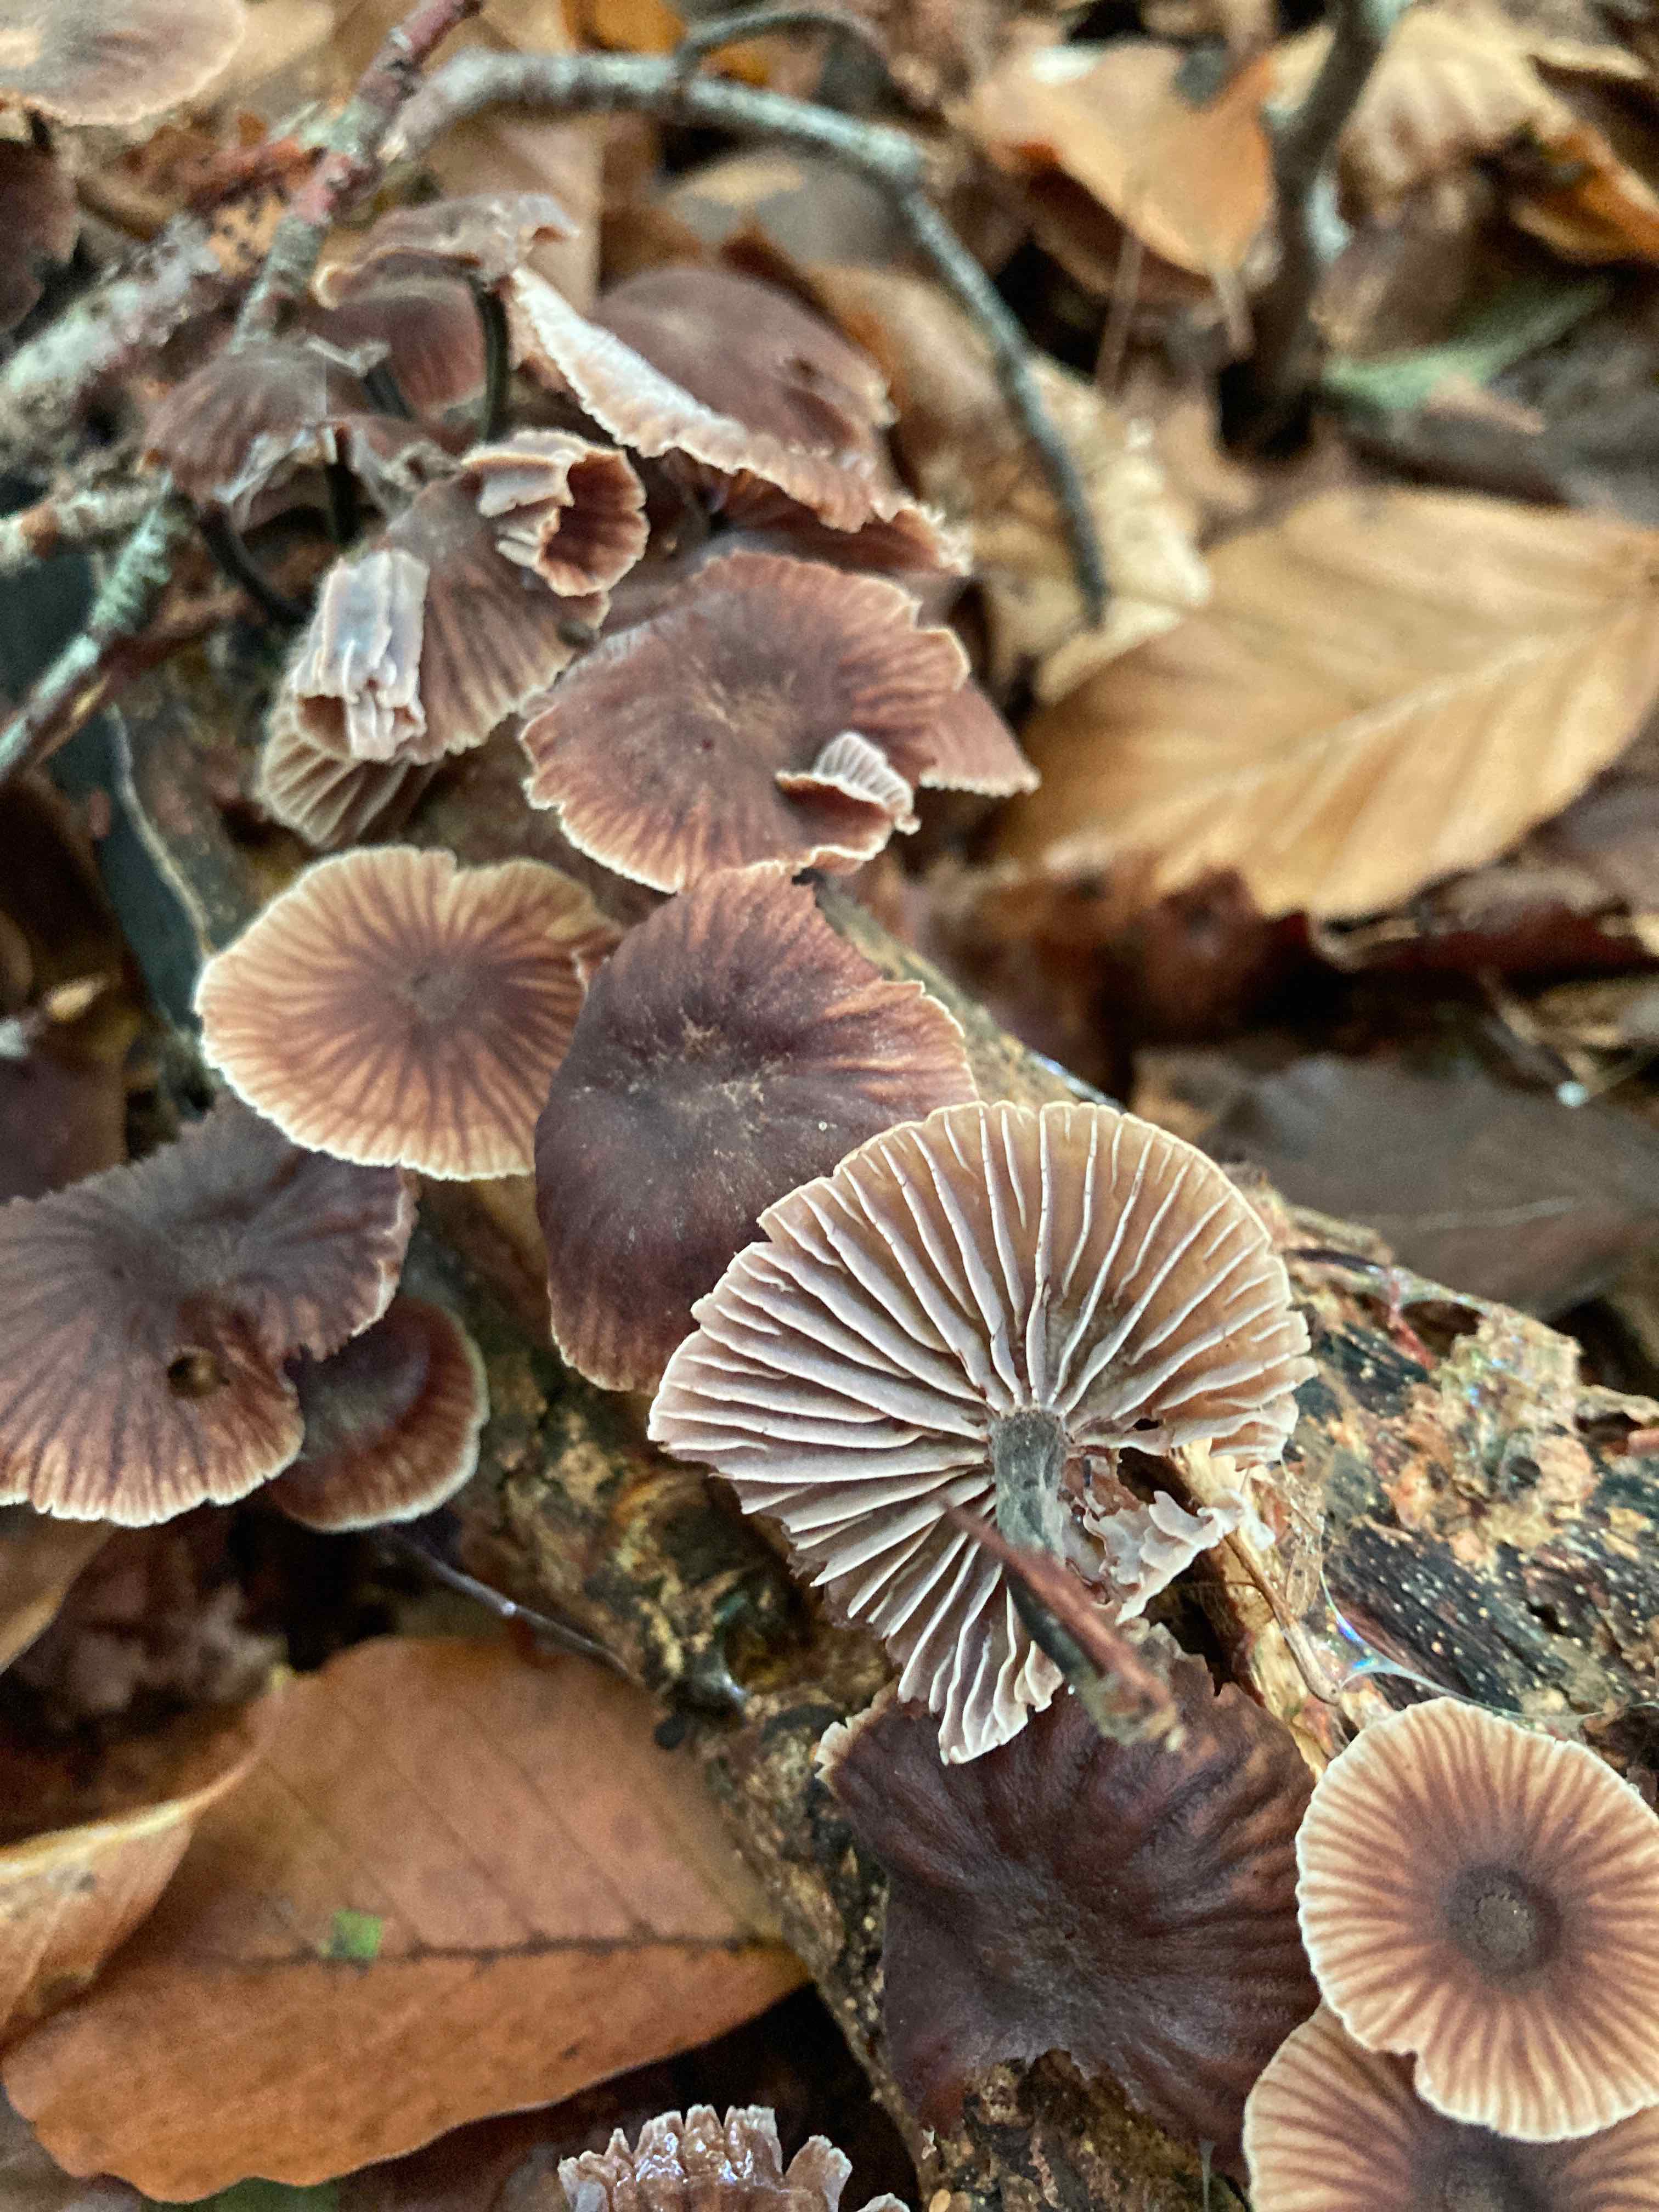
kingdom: Fungi
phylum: Basidiomycota
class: Agaricomycetes
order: Agaricales
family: Omphalotaceae
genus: Gymnopus
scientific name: Gymnopus foetidus
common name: stinkende fladhat
